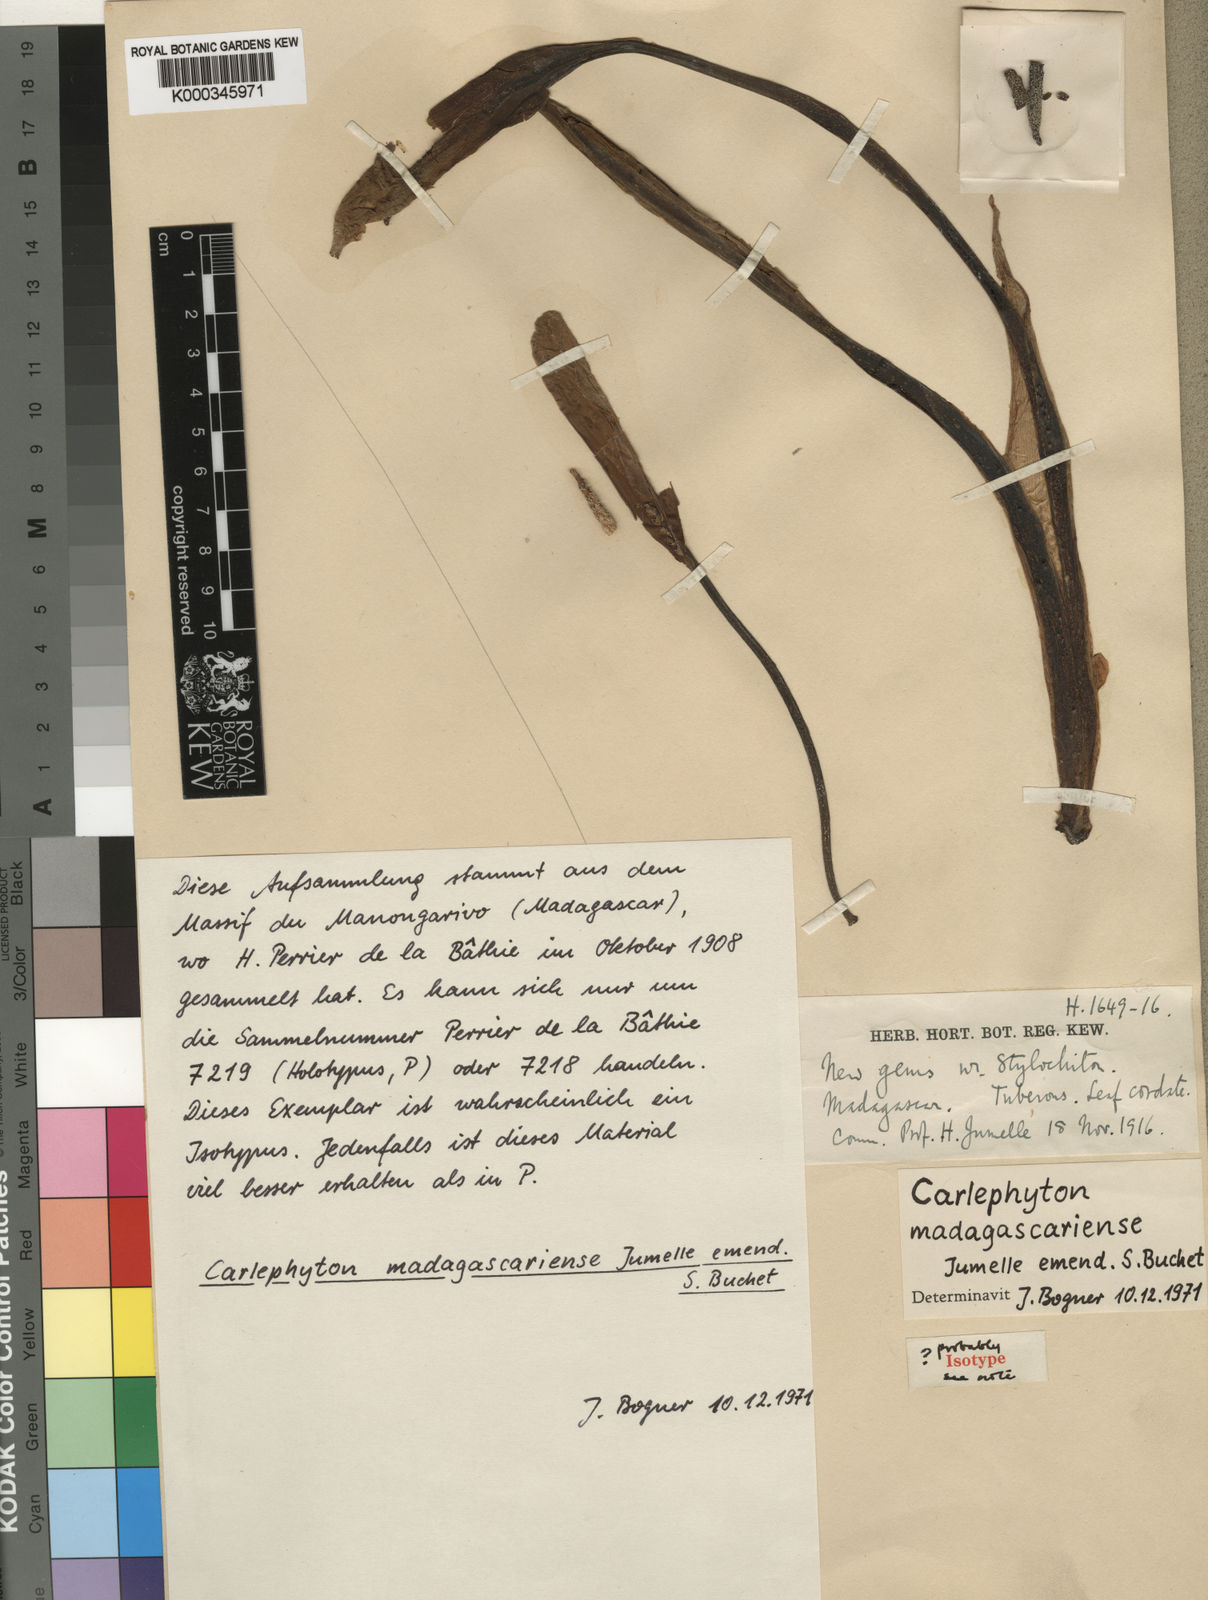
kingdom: Plantae
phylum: Tracheophyta
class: Liliopsida
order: Alismatales
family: Araceae
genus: Carlephyton
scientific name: Carlephyton madagascariense
